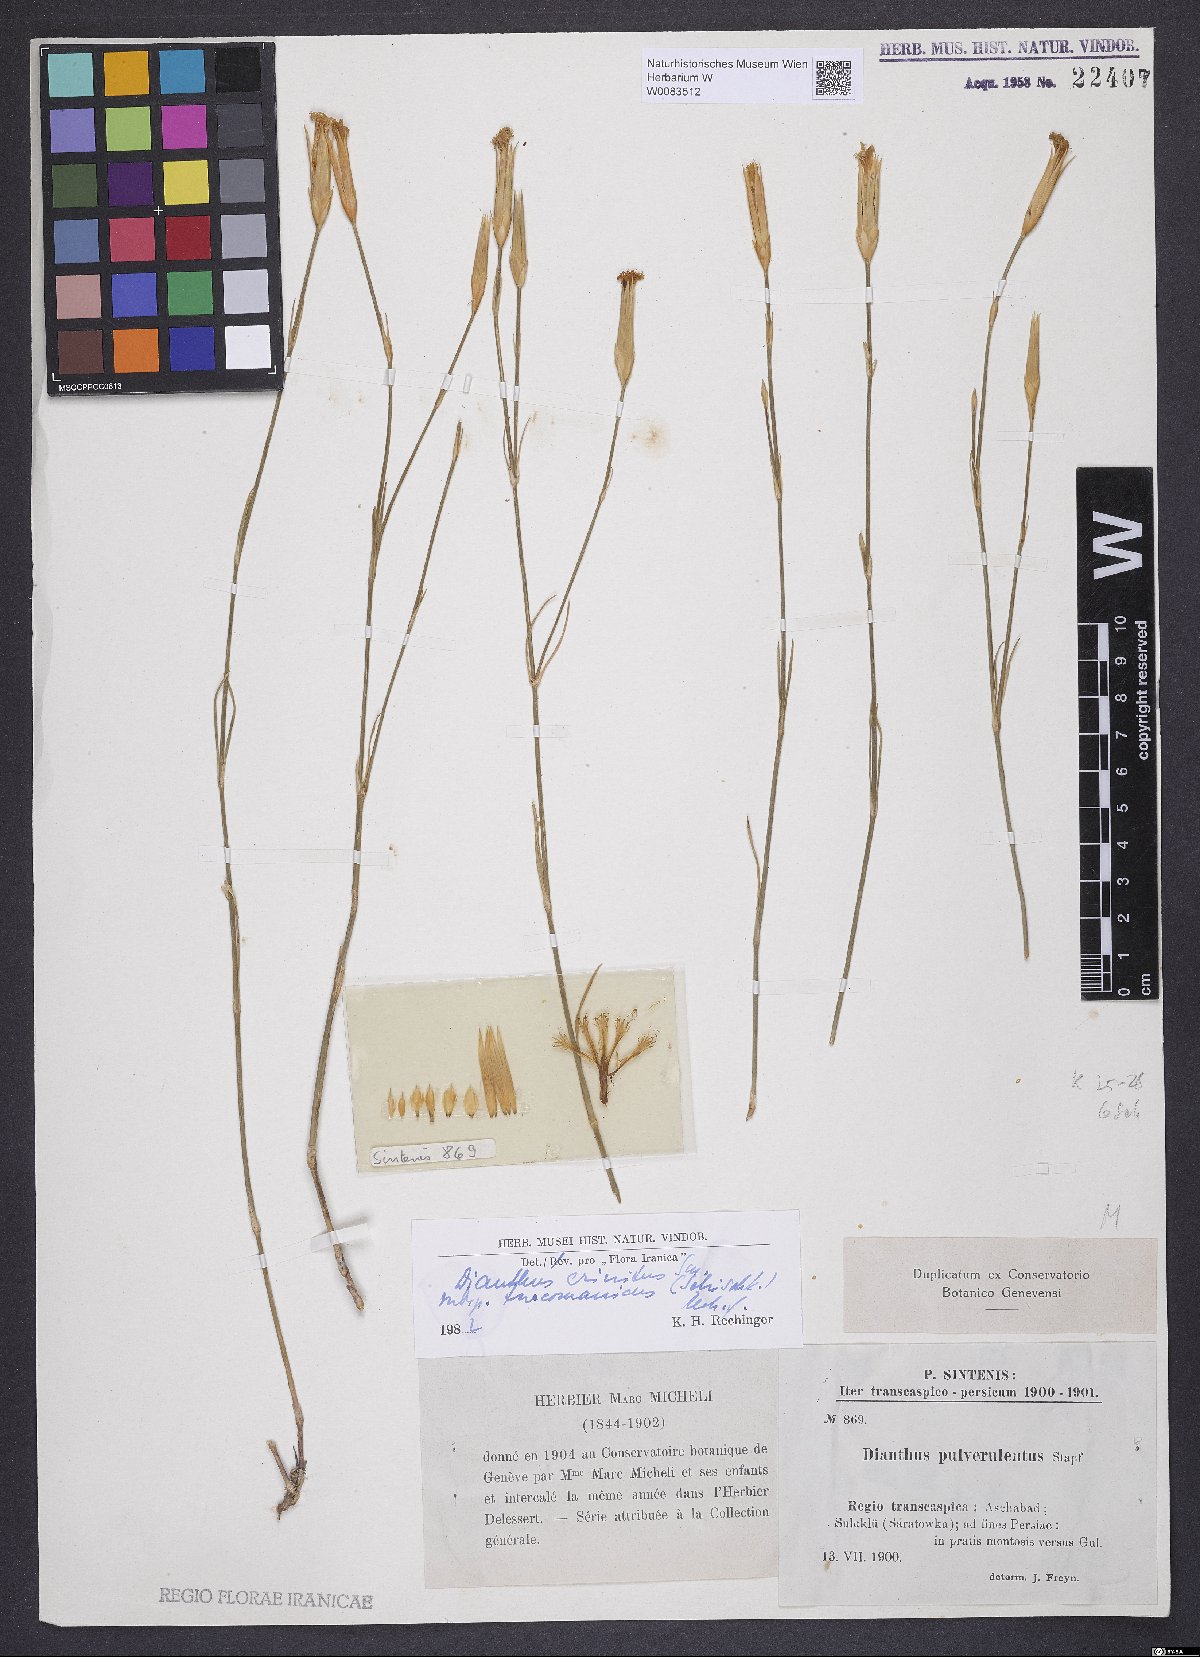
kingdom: Plantae
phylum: Tracheophyta
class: Magnoliopsida
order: Caryophyllales
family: Caryophyllaceae
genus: Dianthus
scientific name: Dianthus turkestanicus
